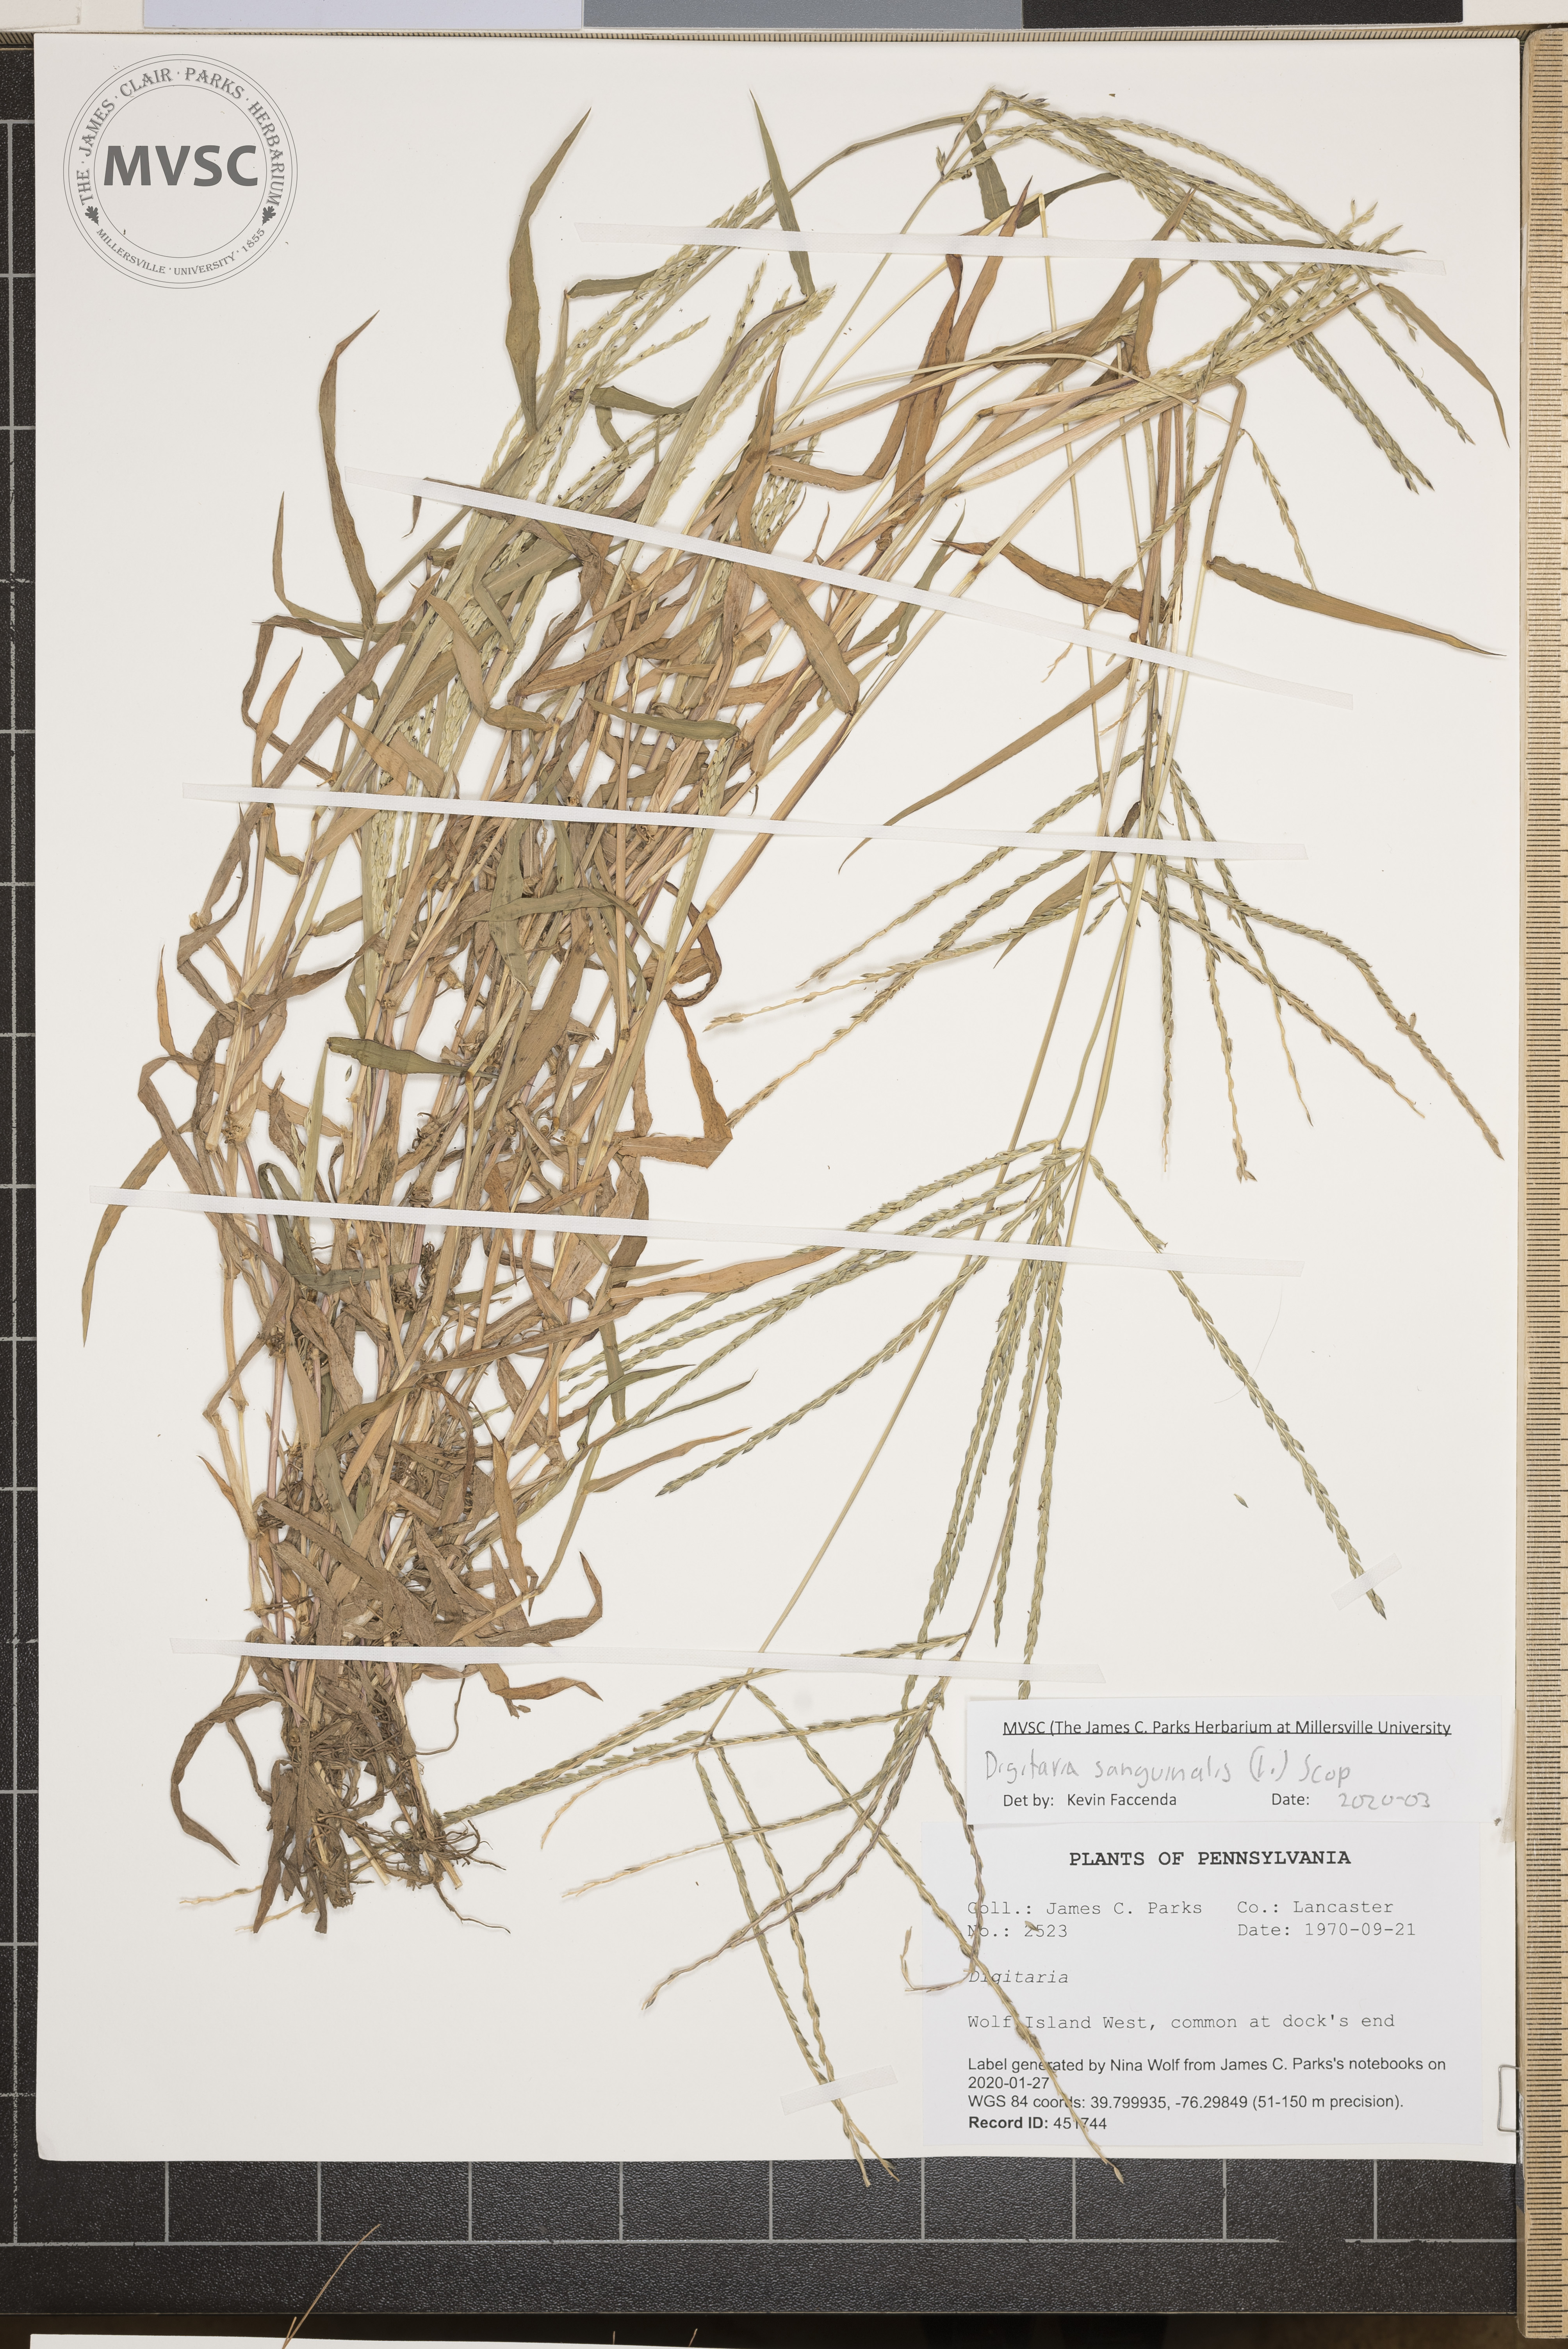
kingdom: Plantae
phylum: Tracheophyta
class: Liliopsida
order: Poales
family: Poaceae
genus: Digitaria
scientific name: Digitaria sanguinalis
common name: crab grass
